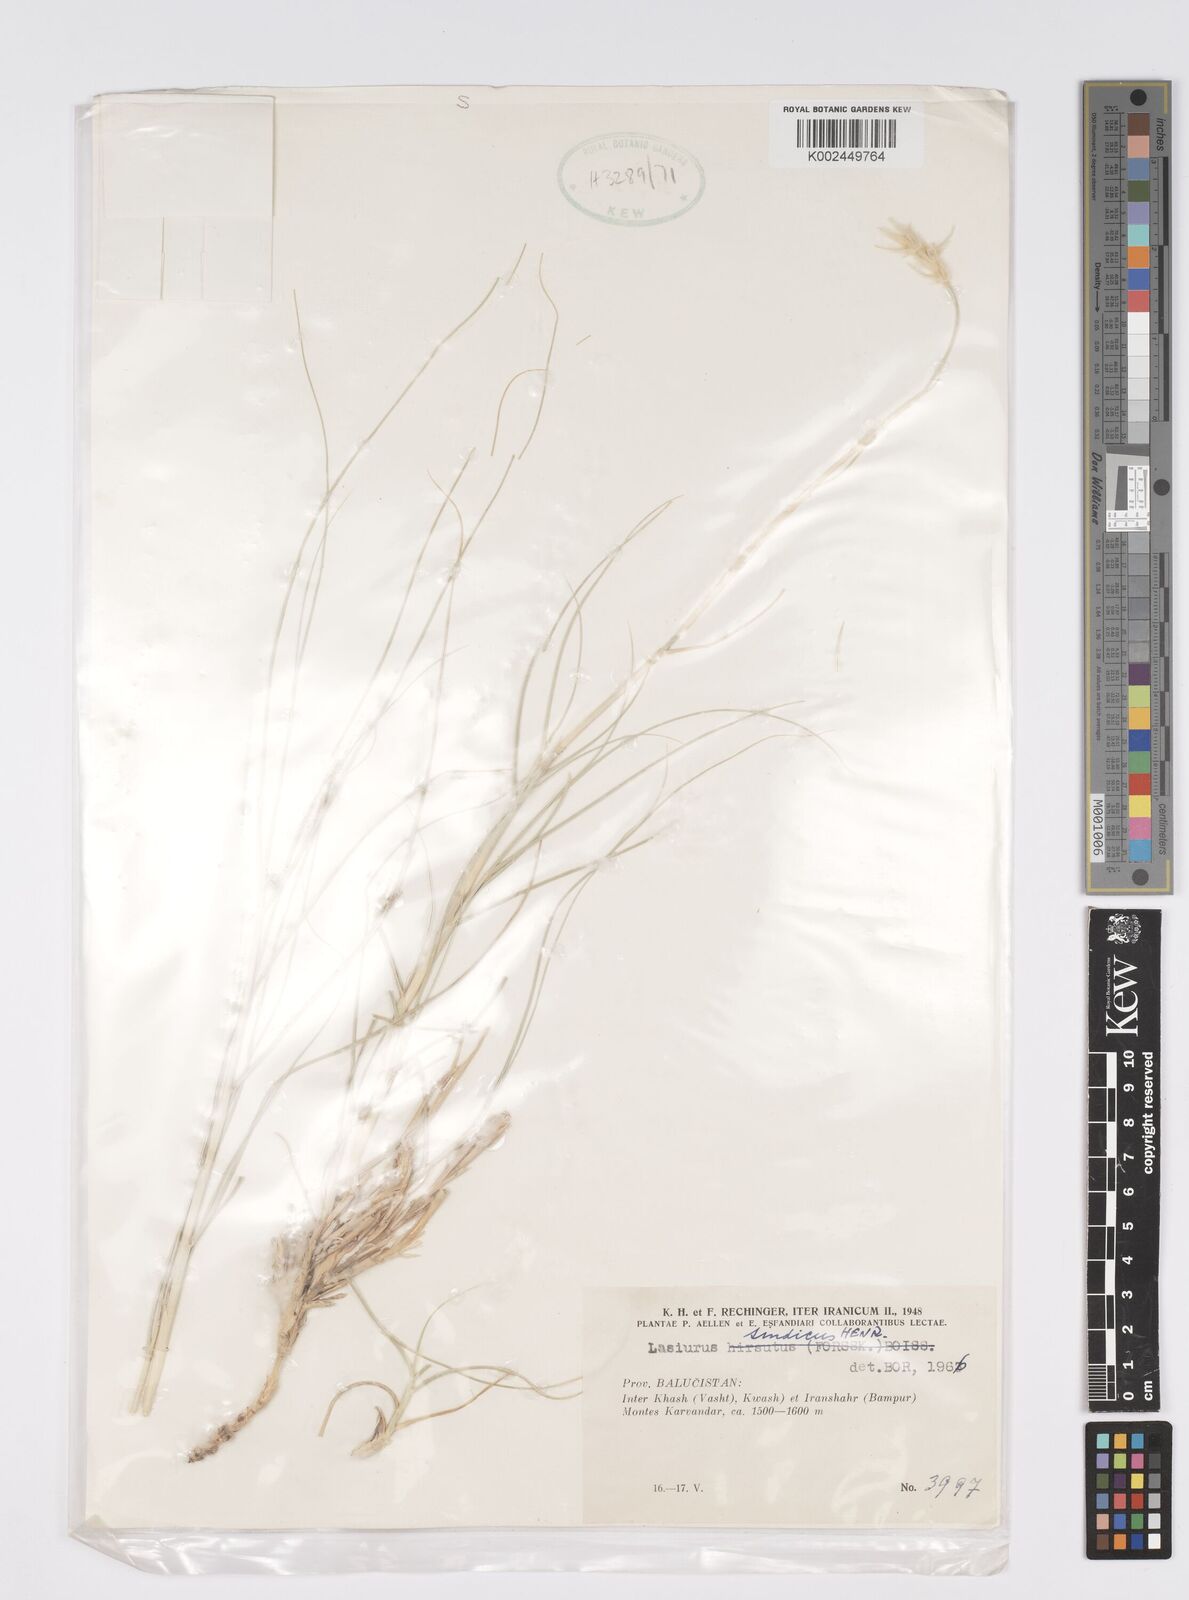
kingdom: Plantae
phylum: Tracheophyta
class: Liliopsida
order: Poales
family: Poaceae
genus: Lasiurus
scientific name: Lasiurus scindicus
